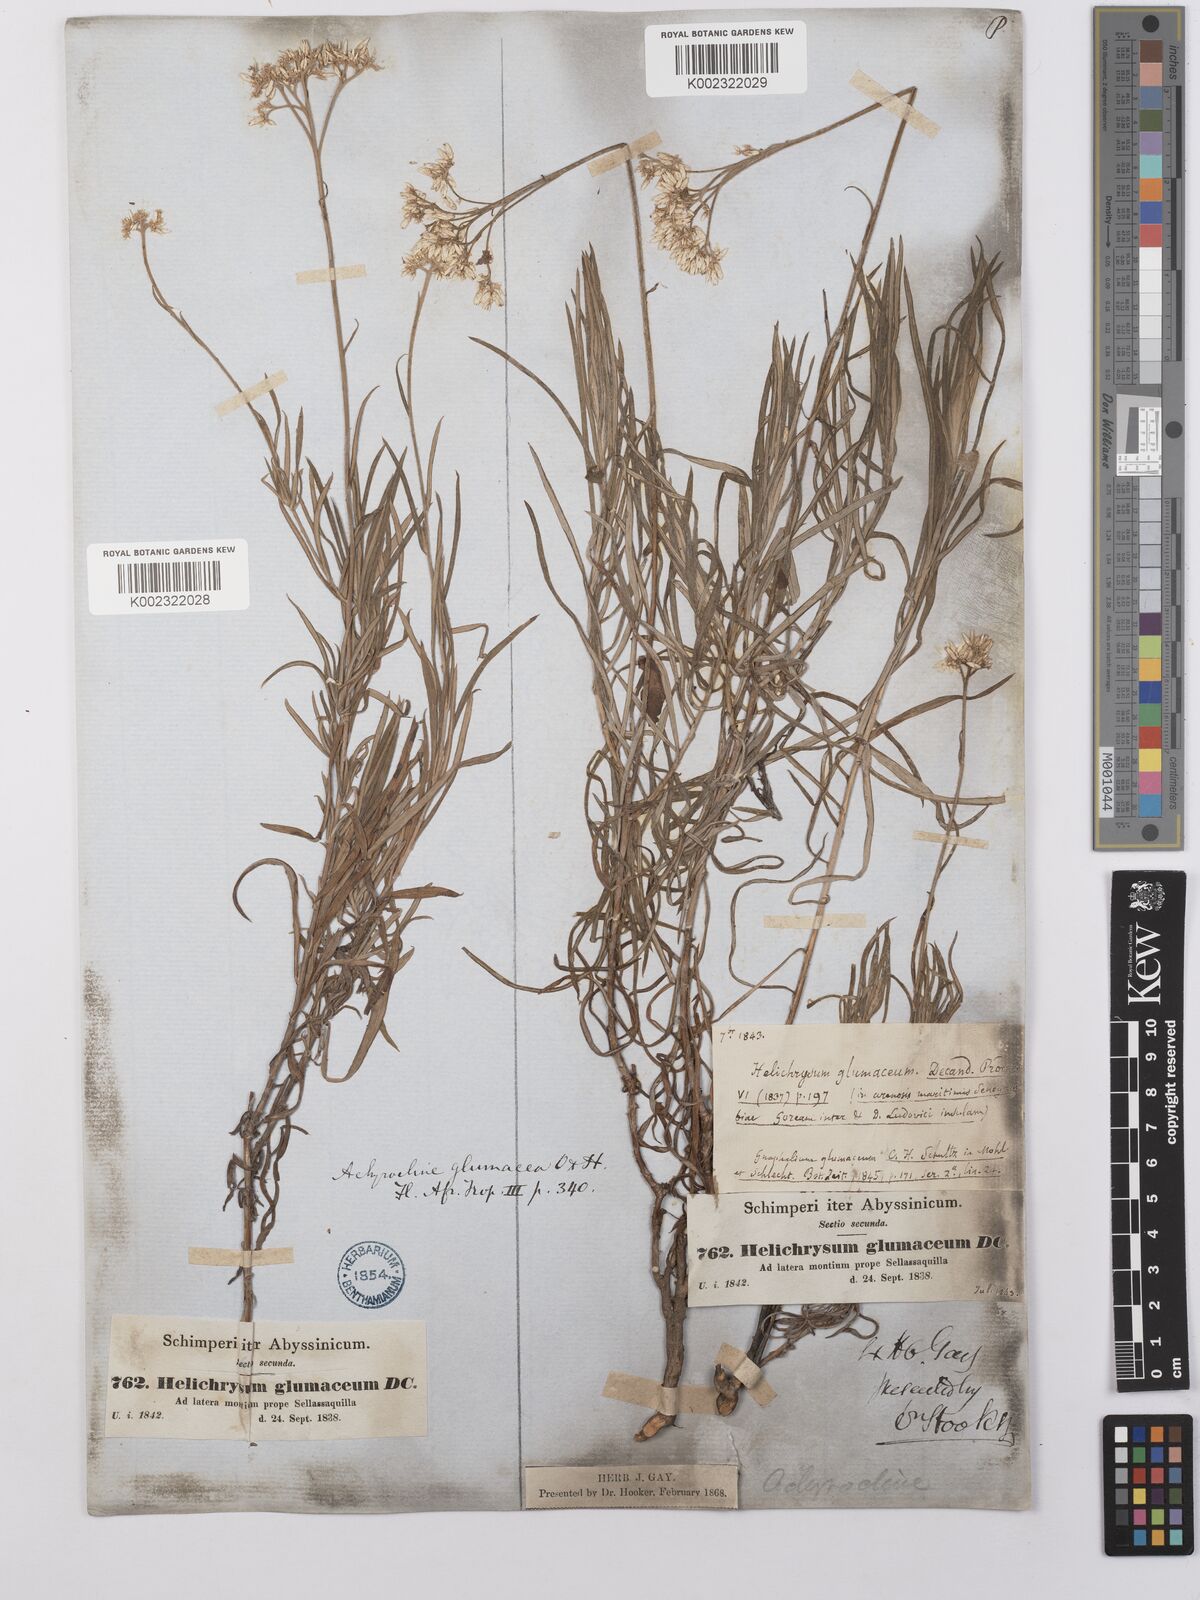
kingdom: Plantae
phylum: Tracheophyta
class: Magnoliopsida
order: Asterales
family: Asteraceae
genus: Helichrysum
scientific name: Helichrysum glumaceum
